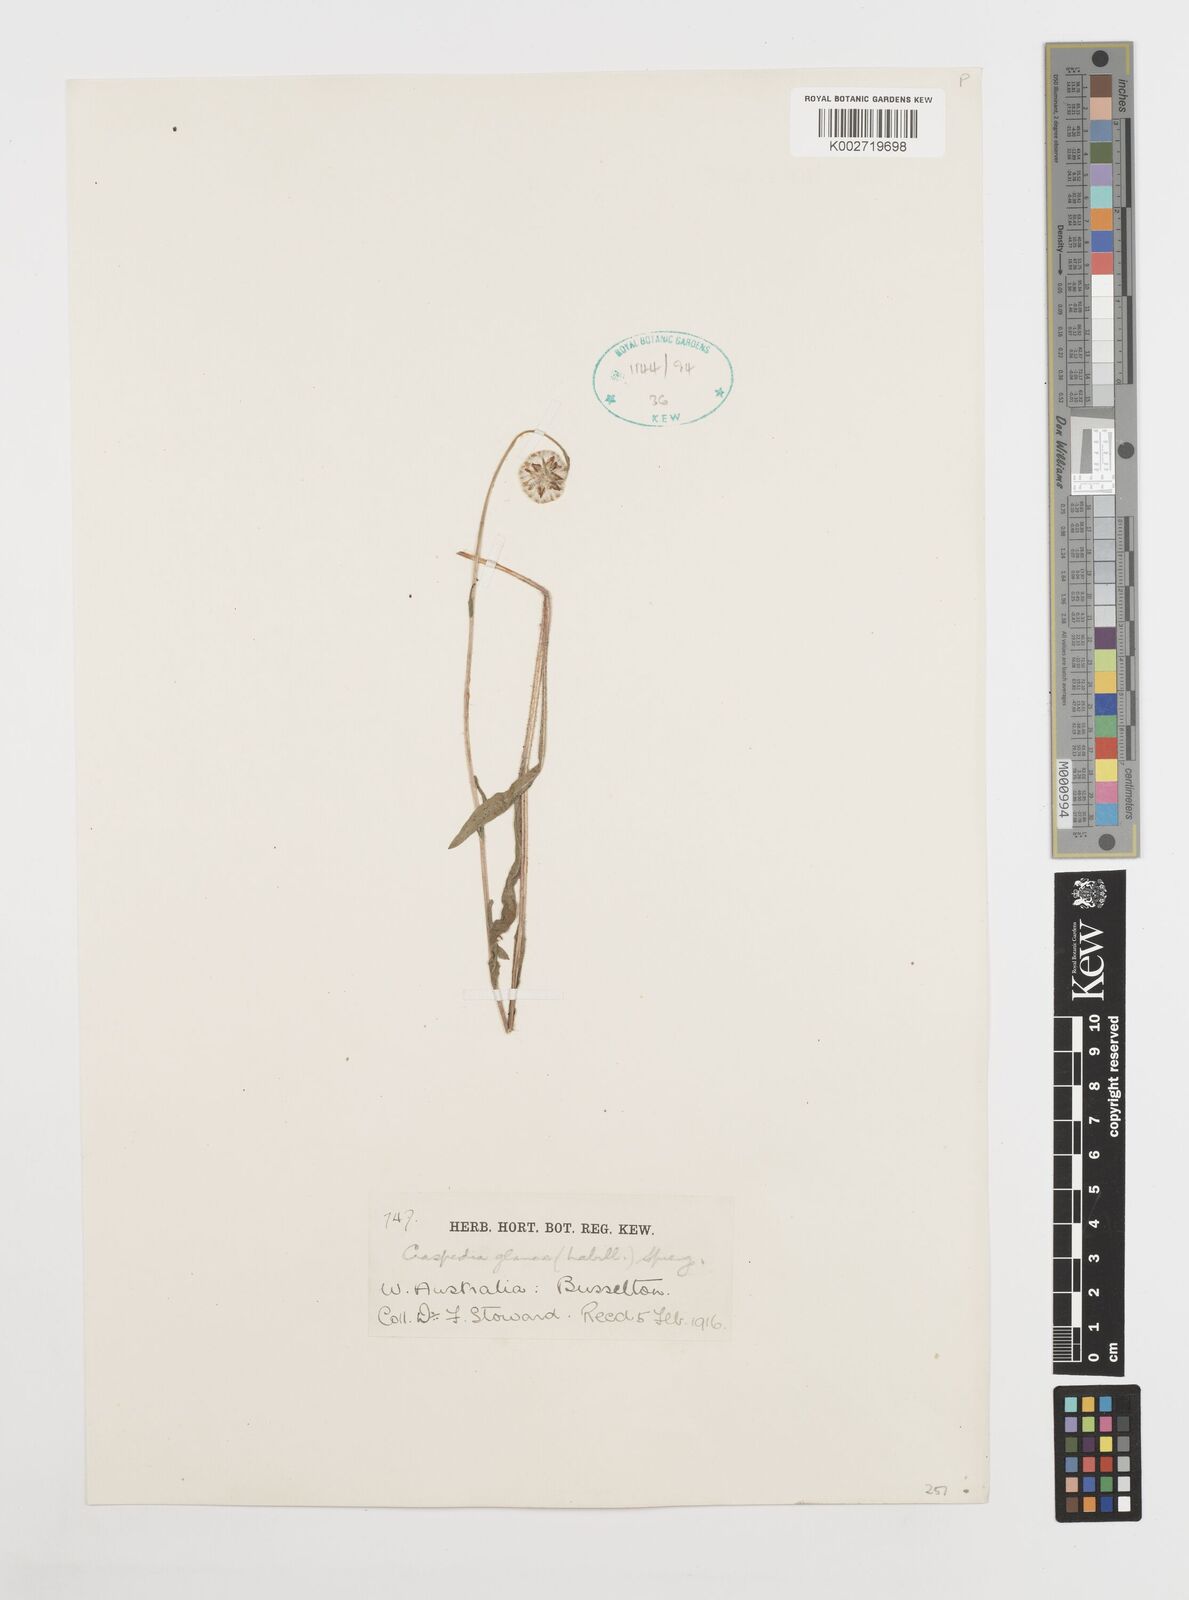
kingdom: Plantae
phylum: Tracheophyta
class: Magnoliopsida
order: Asterales
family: Asteraceae
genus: Craspedia
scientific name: Craspedia glauca
